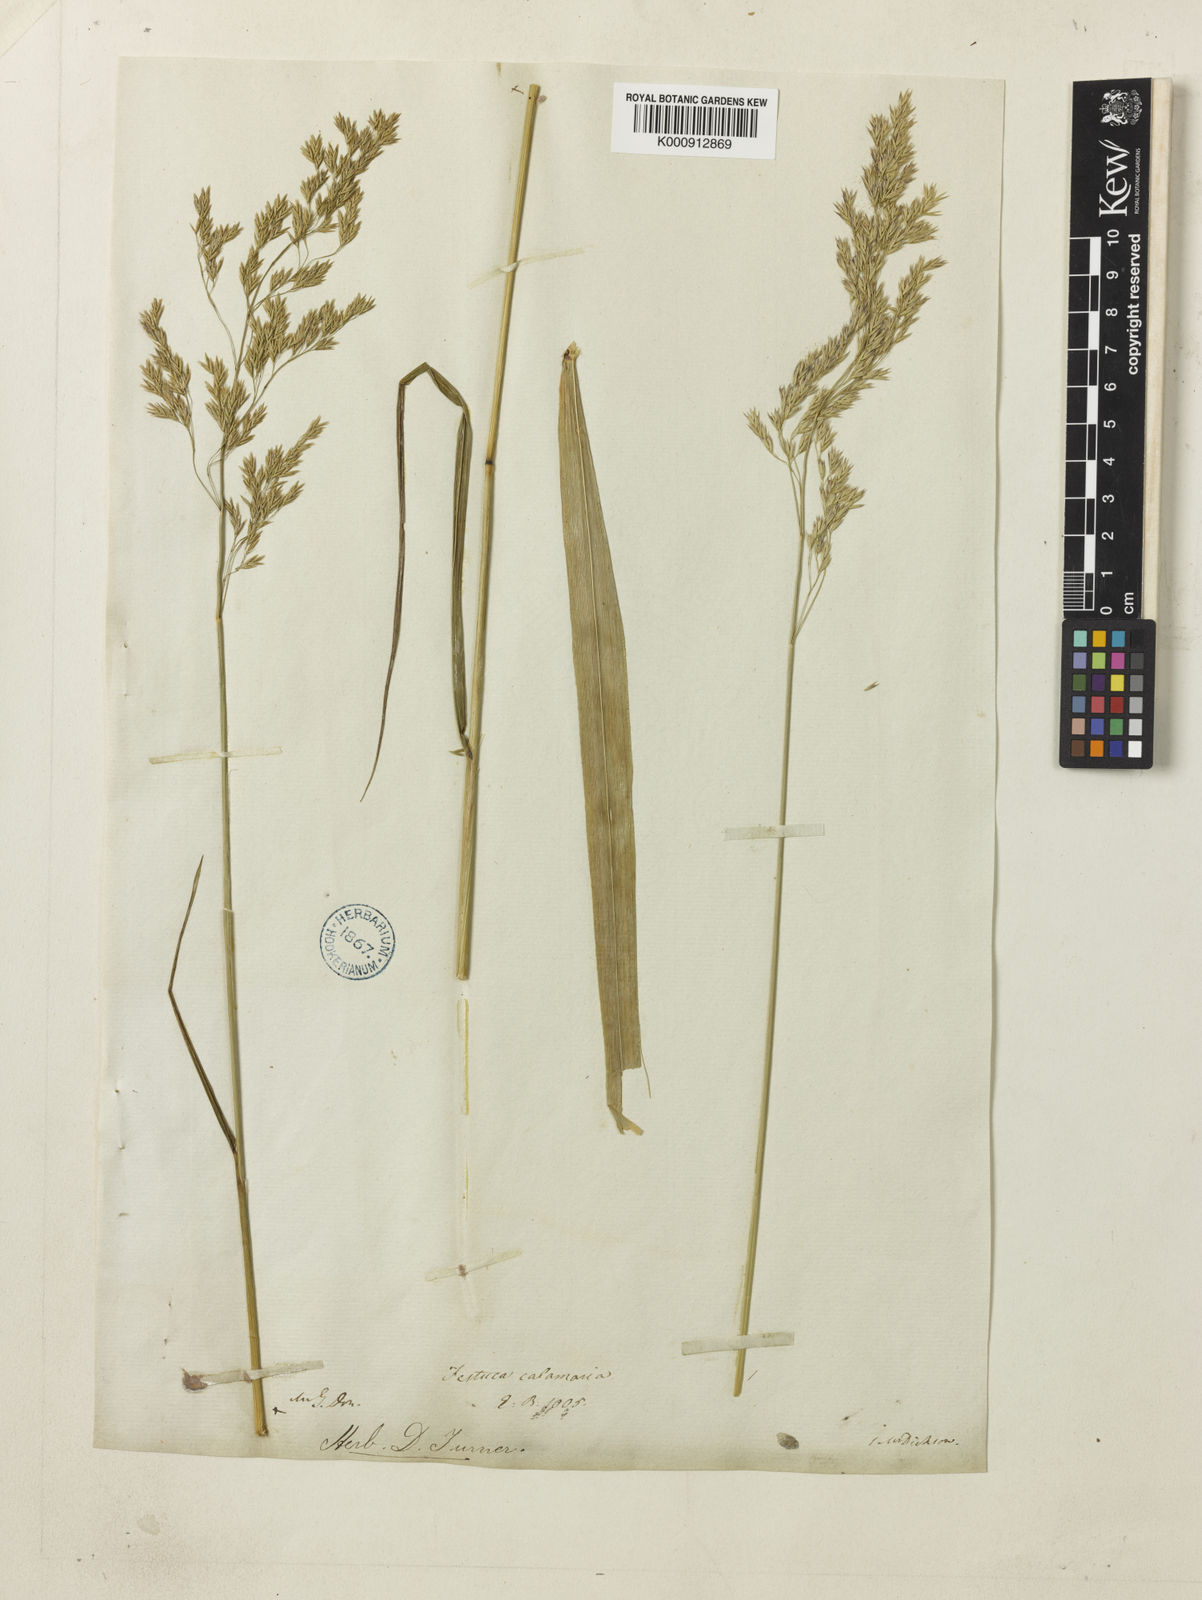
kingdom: Plantae
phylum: Tracheophyta
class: Liliopsida
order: Poales
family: Poaceae
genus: Festuca
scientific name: Festuca altissima
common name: Wood fescue
